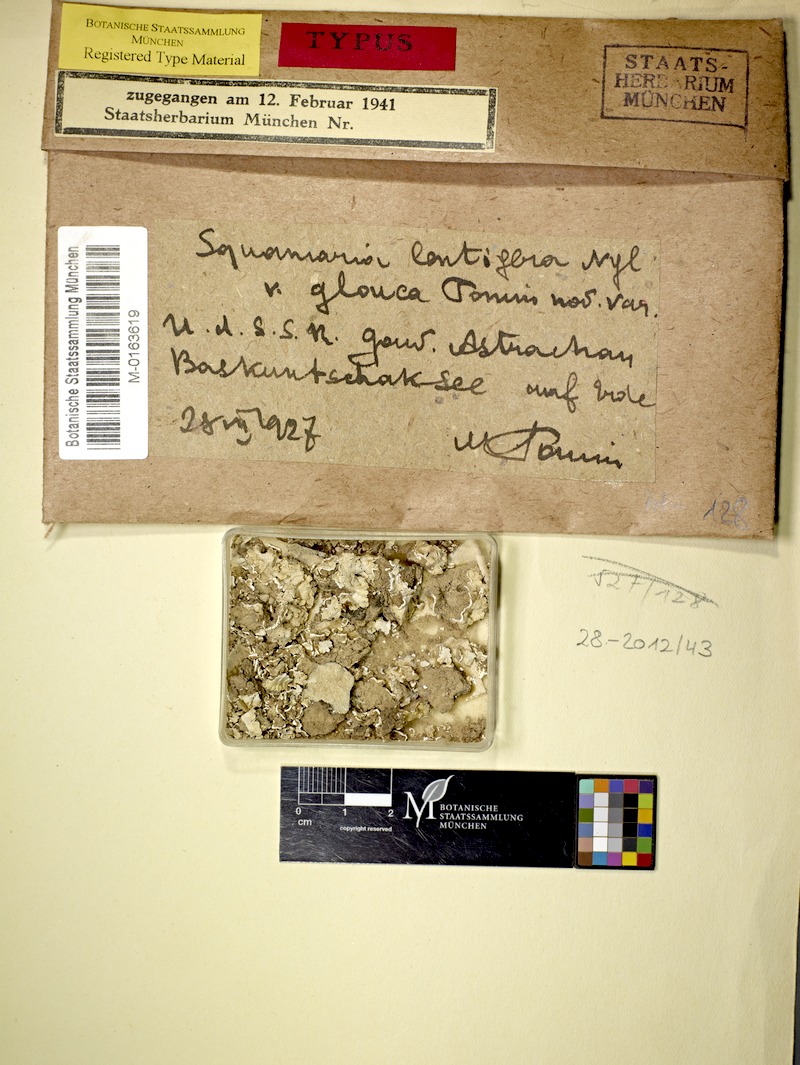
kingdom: Fungi
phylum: Ascomycota
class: Lecanoromycetes
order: Lecanorales
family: Stereocaulaceae
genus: Squamarina
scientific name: Squamarina gypsacea
